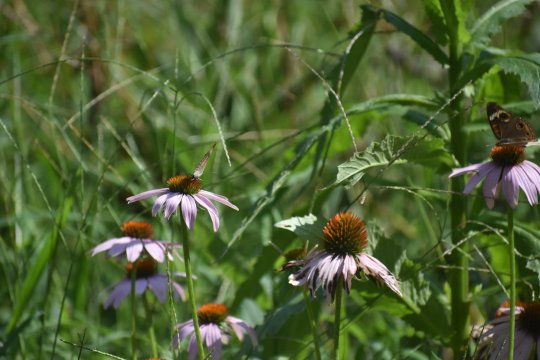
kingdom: Animalia
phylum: Arthropoda
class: Insecta
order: Lepidoptera
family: Nymphalidae
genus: Junonia
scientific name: Junonia coenia
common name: Common Buckeye
